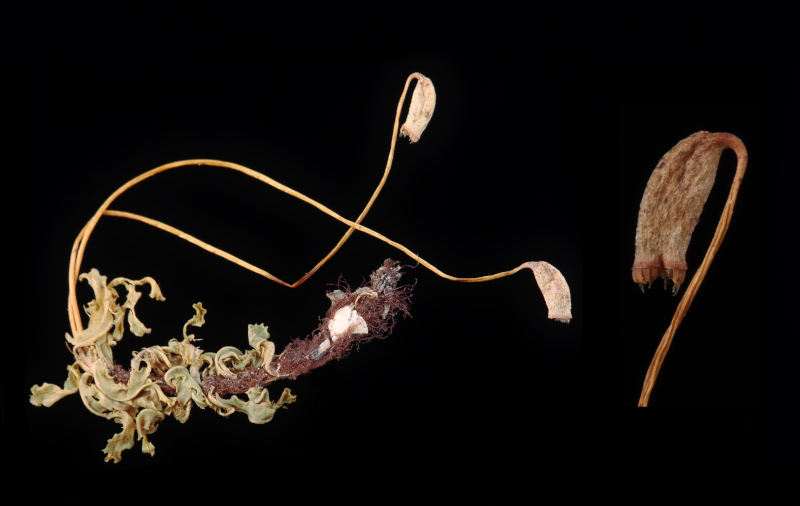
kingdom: Plantae
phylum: Bryophyta
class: Bryopsida
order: Bryales
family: Mniaceae
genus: Plagiomnium
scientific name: Plagiomnium rostratum
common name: Long-beaked leafy moss
